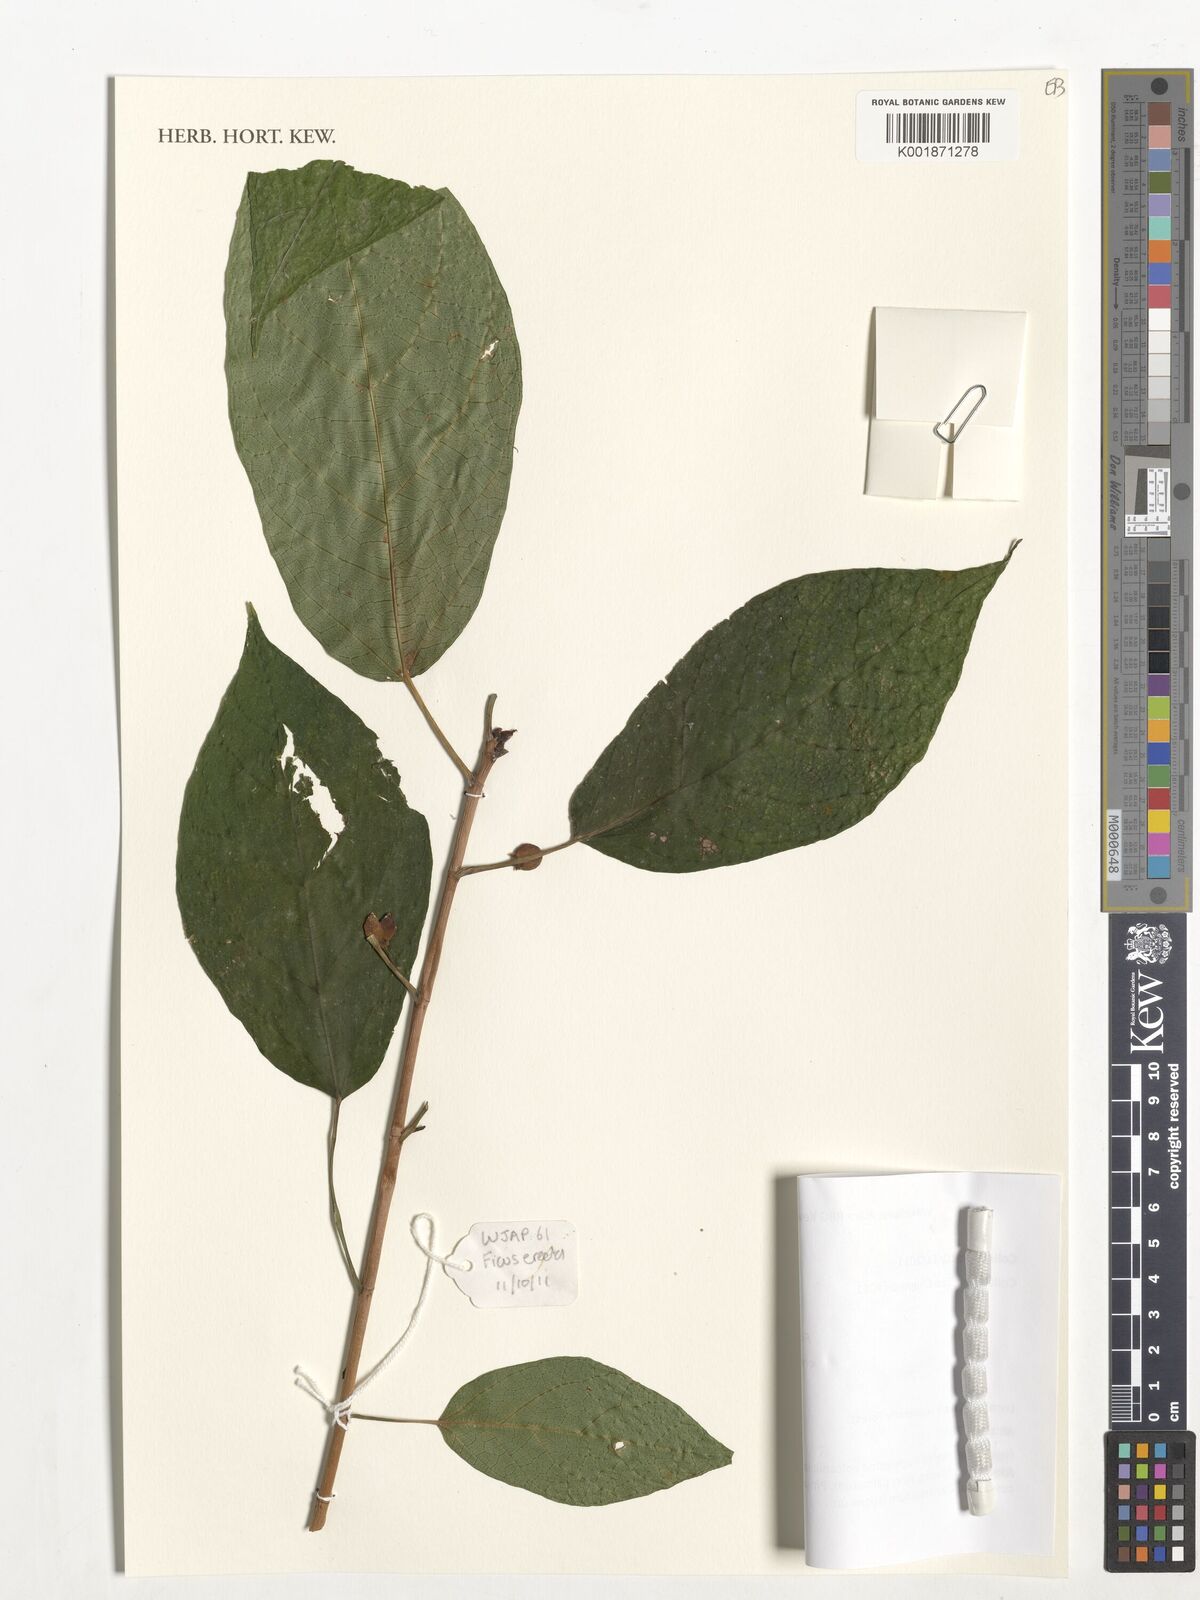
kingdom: Plantae
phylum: Tracheophyta
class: Magnoliopsida
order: Rosales
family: Moraceae
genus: Ficus
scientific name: Ficus erecta
